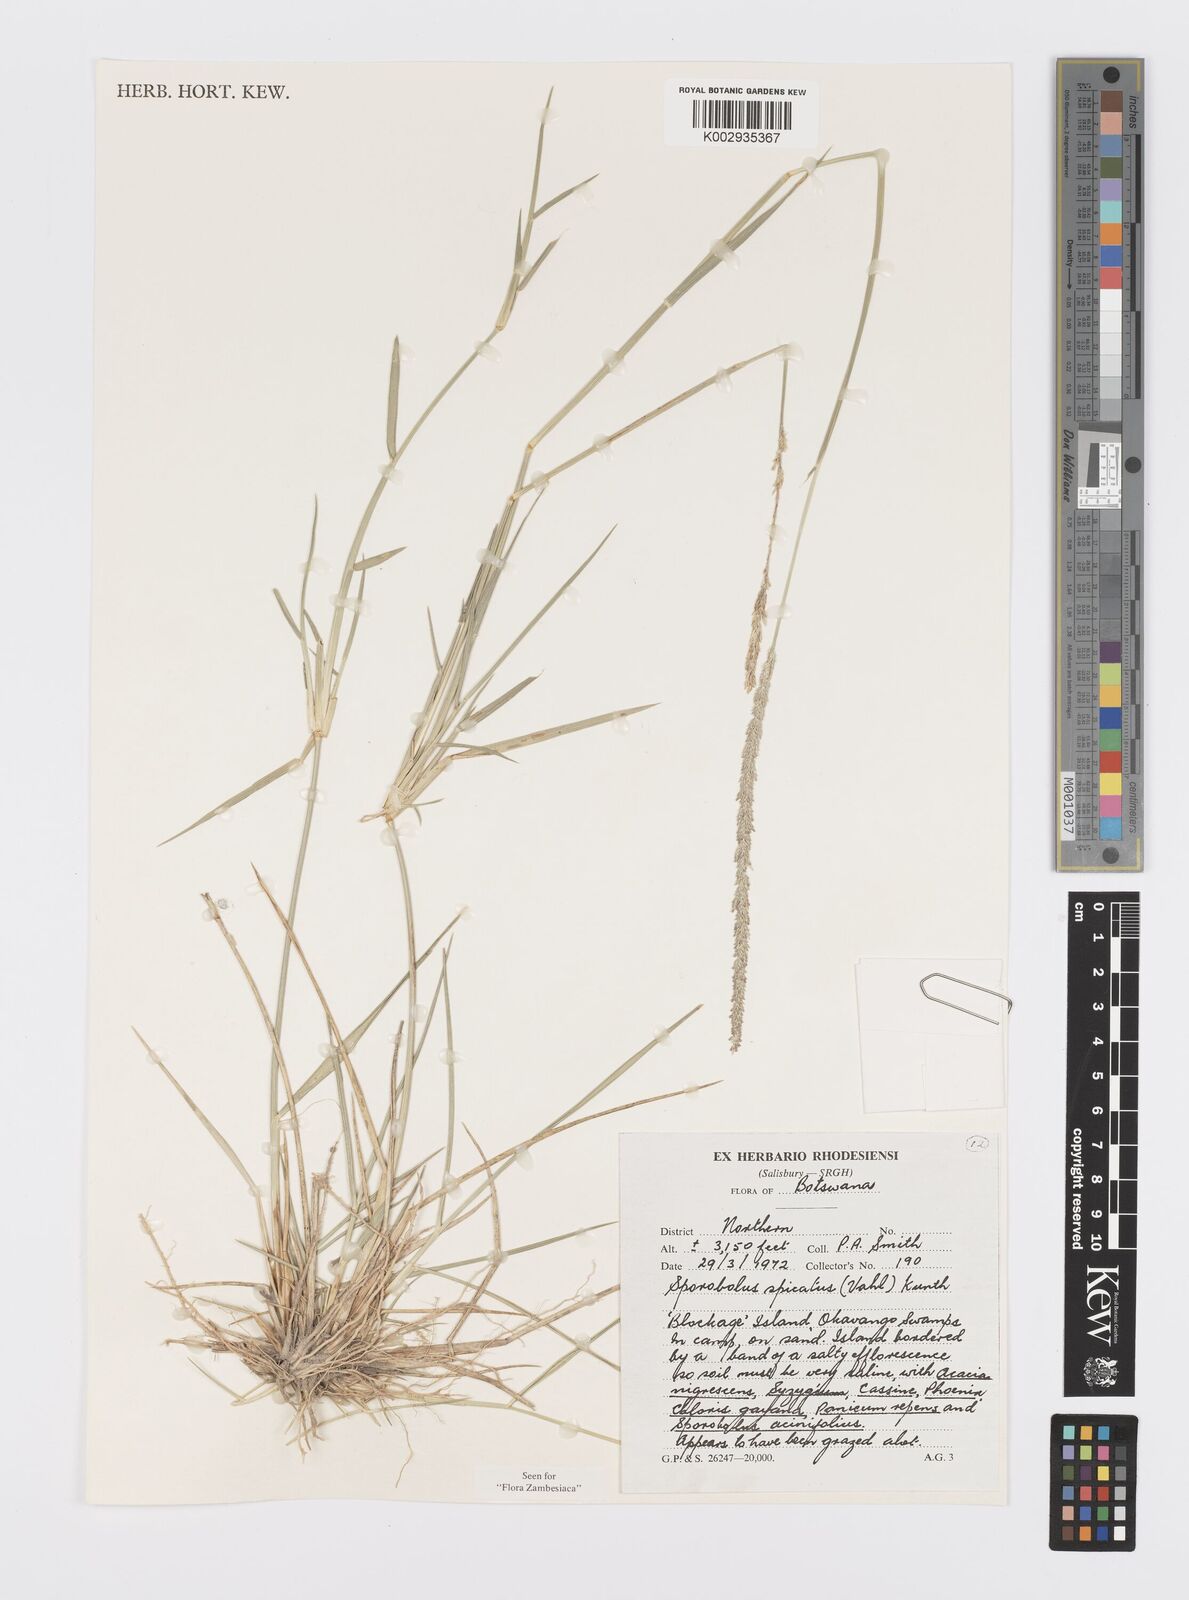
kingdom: Plantae
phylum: Tracheophyta
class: Liliopsida
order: Poales
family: Poaceae
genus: Sporobolus
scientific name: Sporobolus spicatus
